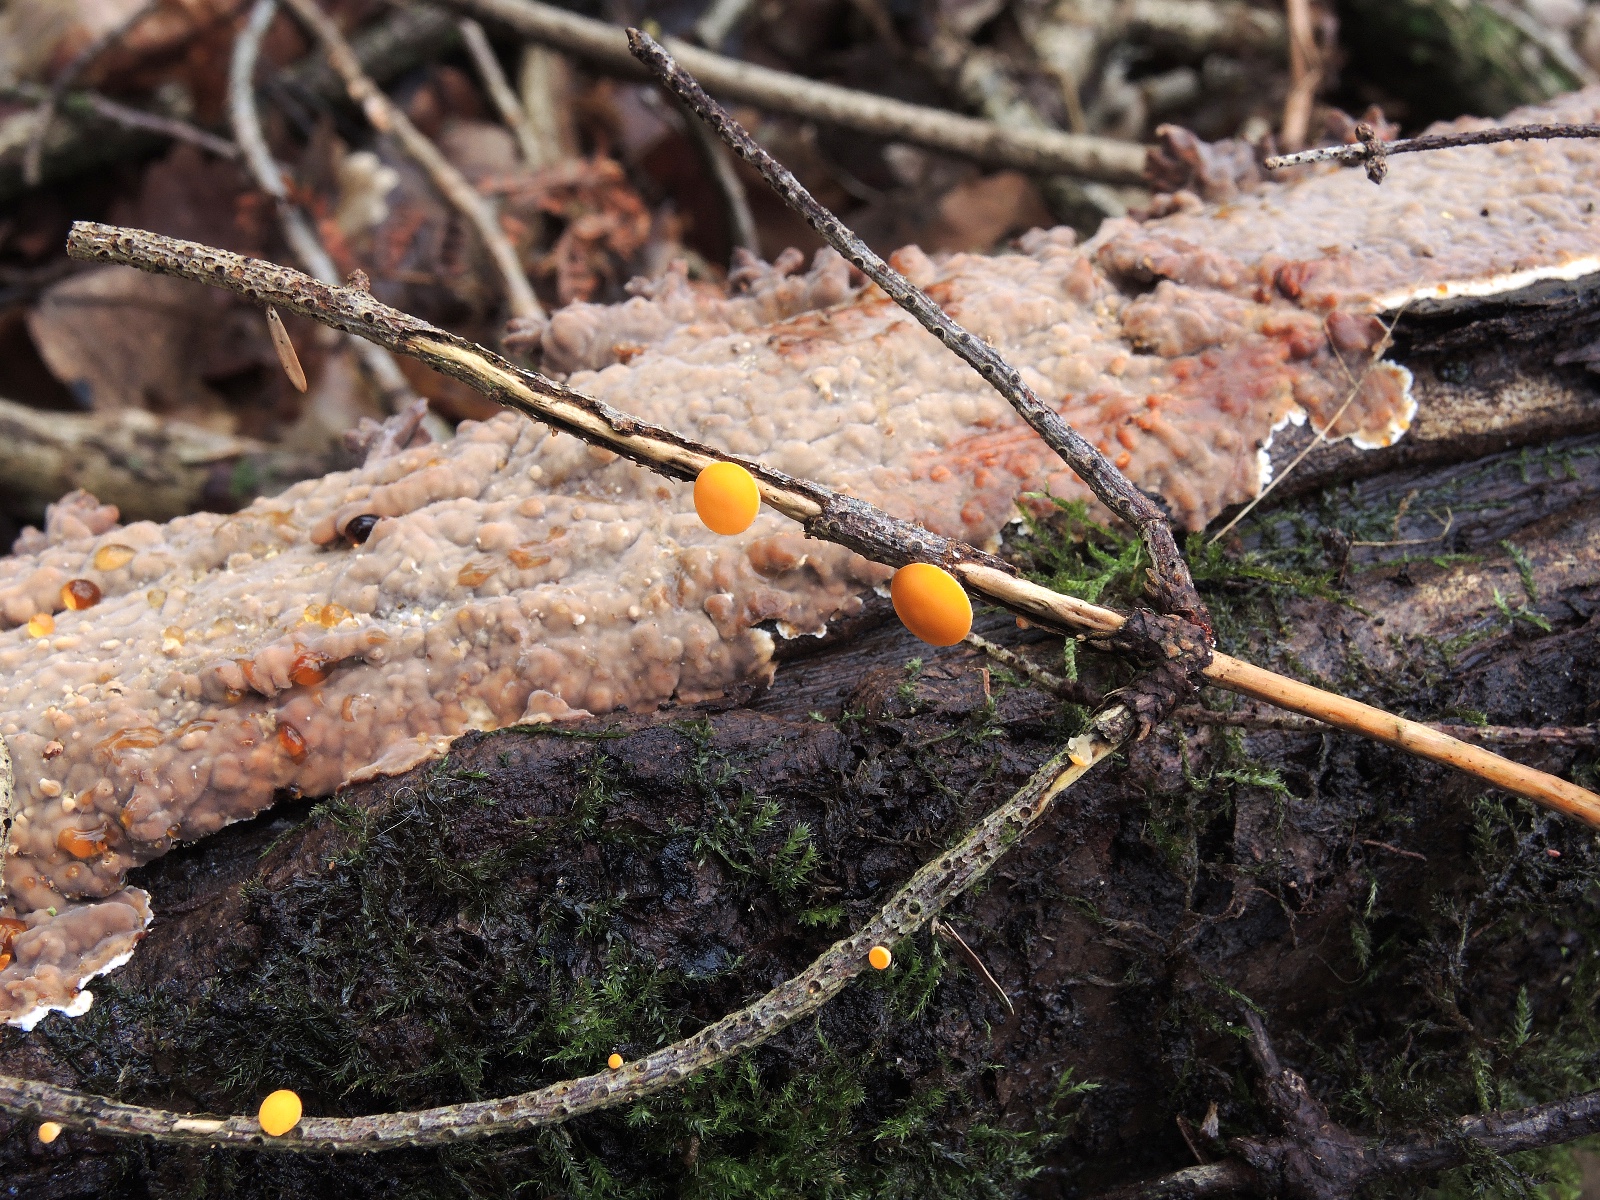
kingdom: Fungi
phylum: Ascomycota
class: Pezizomycetes
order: Pezizales
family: Sarcoscyphaceae
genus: Pithya
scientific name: Pithya vulgaris
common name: stor dukatbæger
